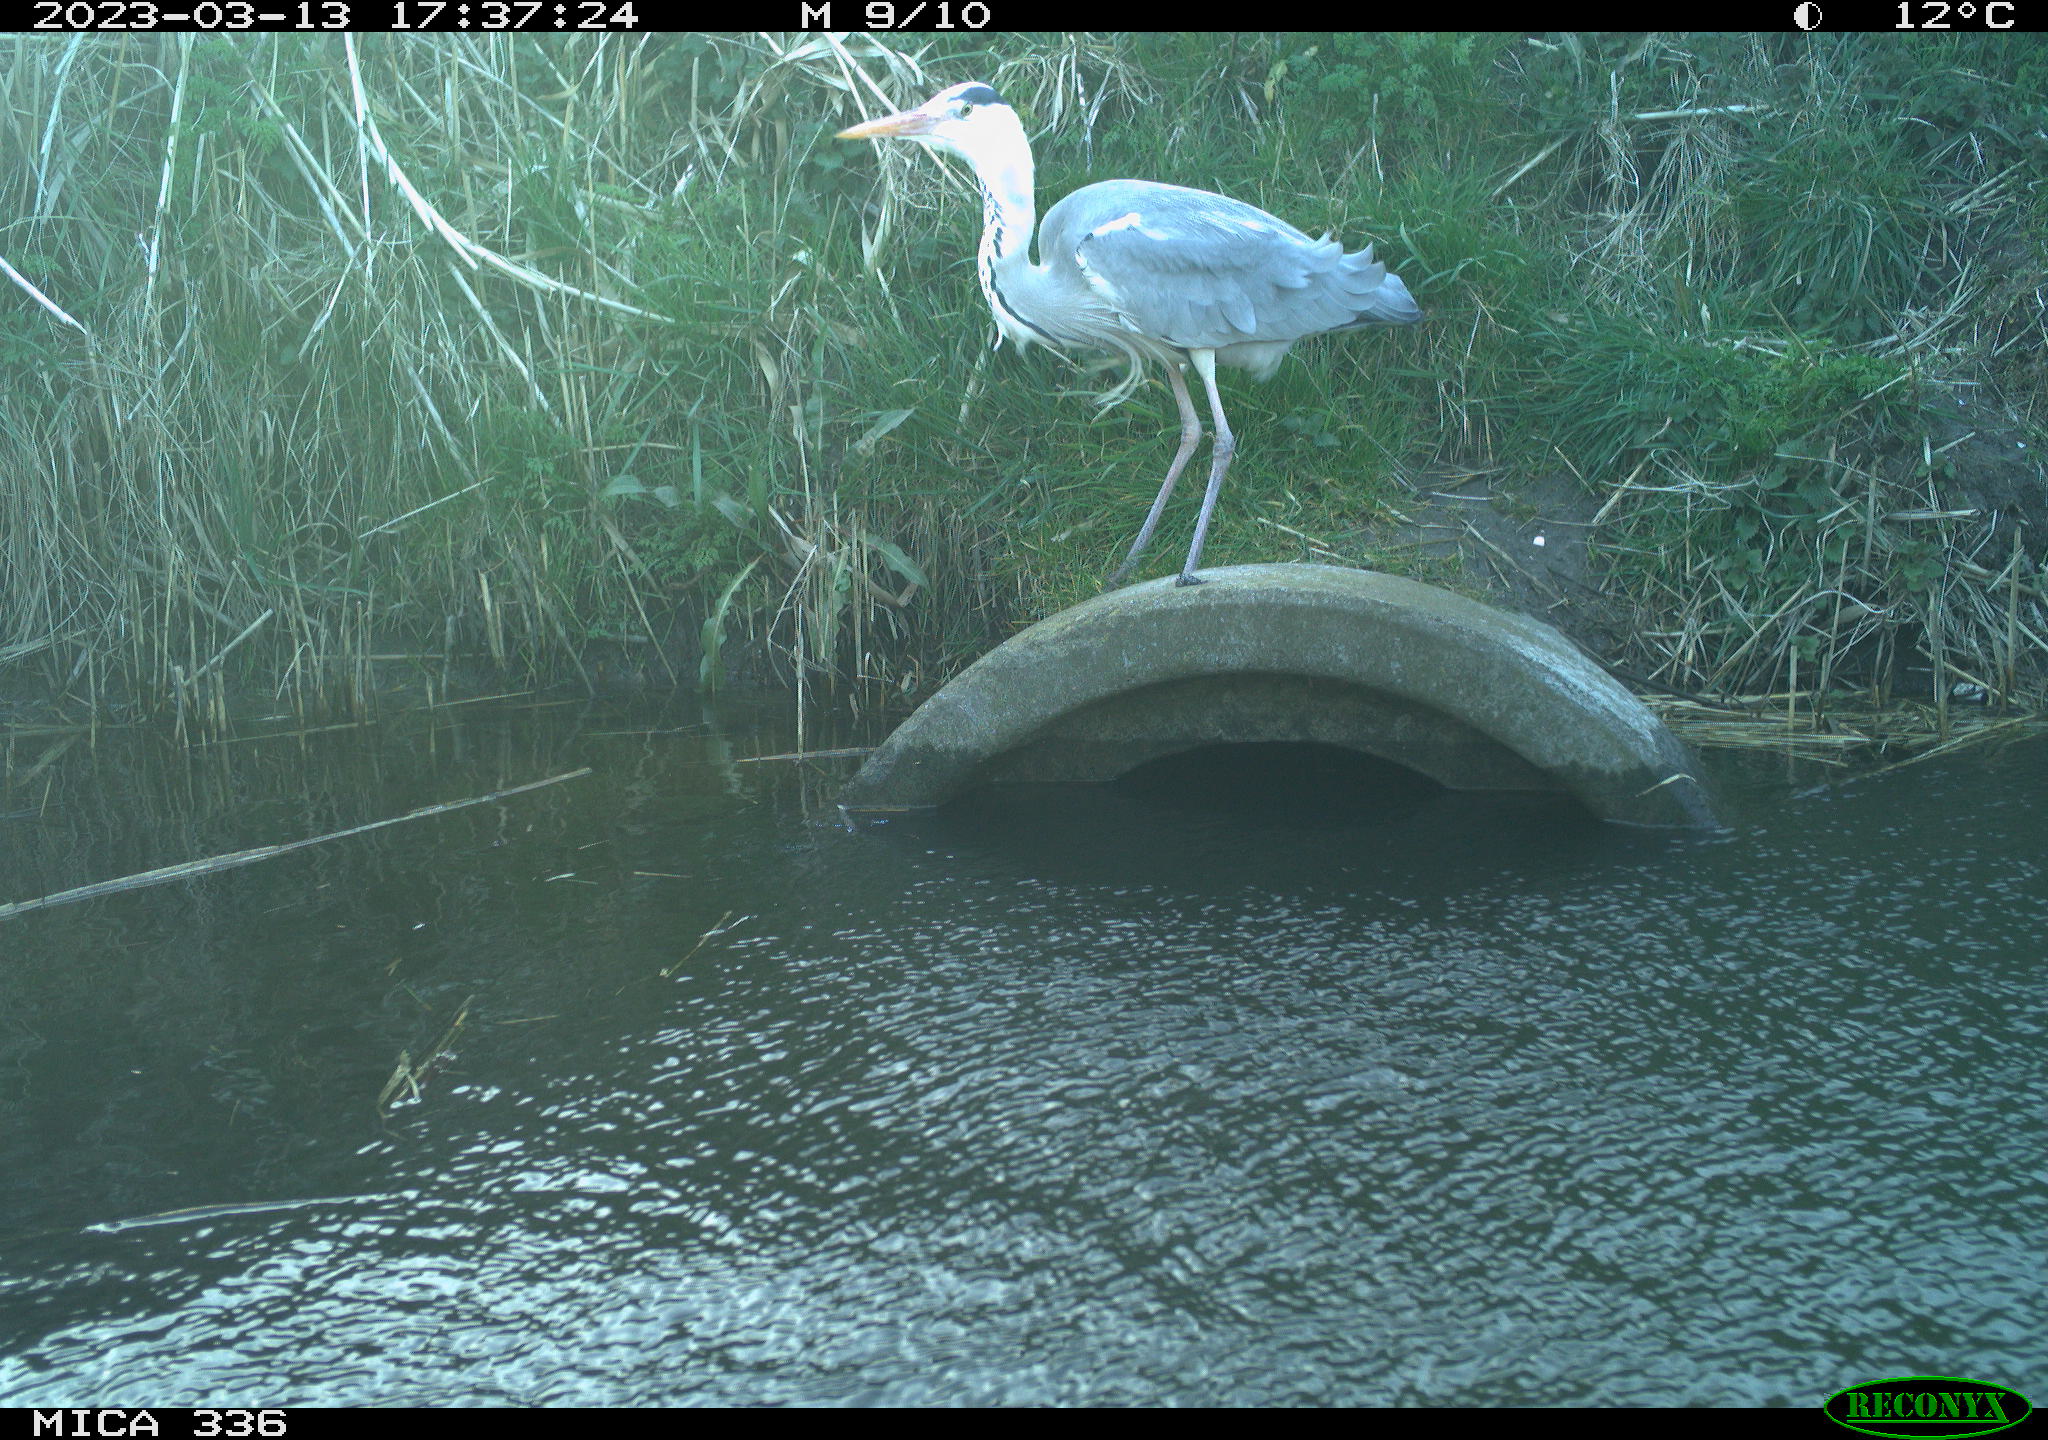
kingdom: Animalia
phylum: Chordata
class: Aves
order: Pelecaniformes
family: Ardeidae
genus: Ardea
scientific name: Ardea cinerea
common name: Grey heron
